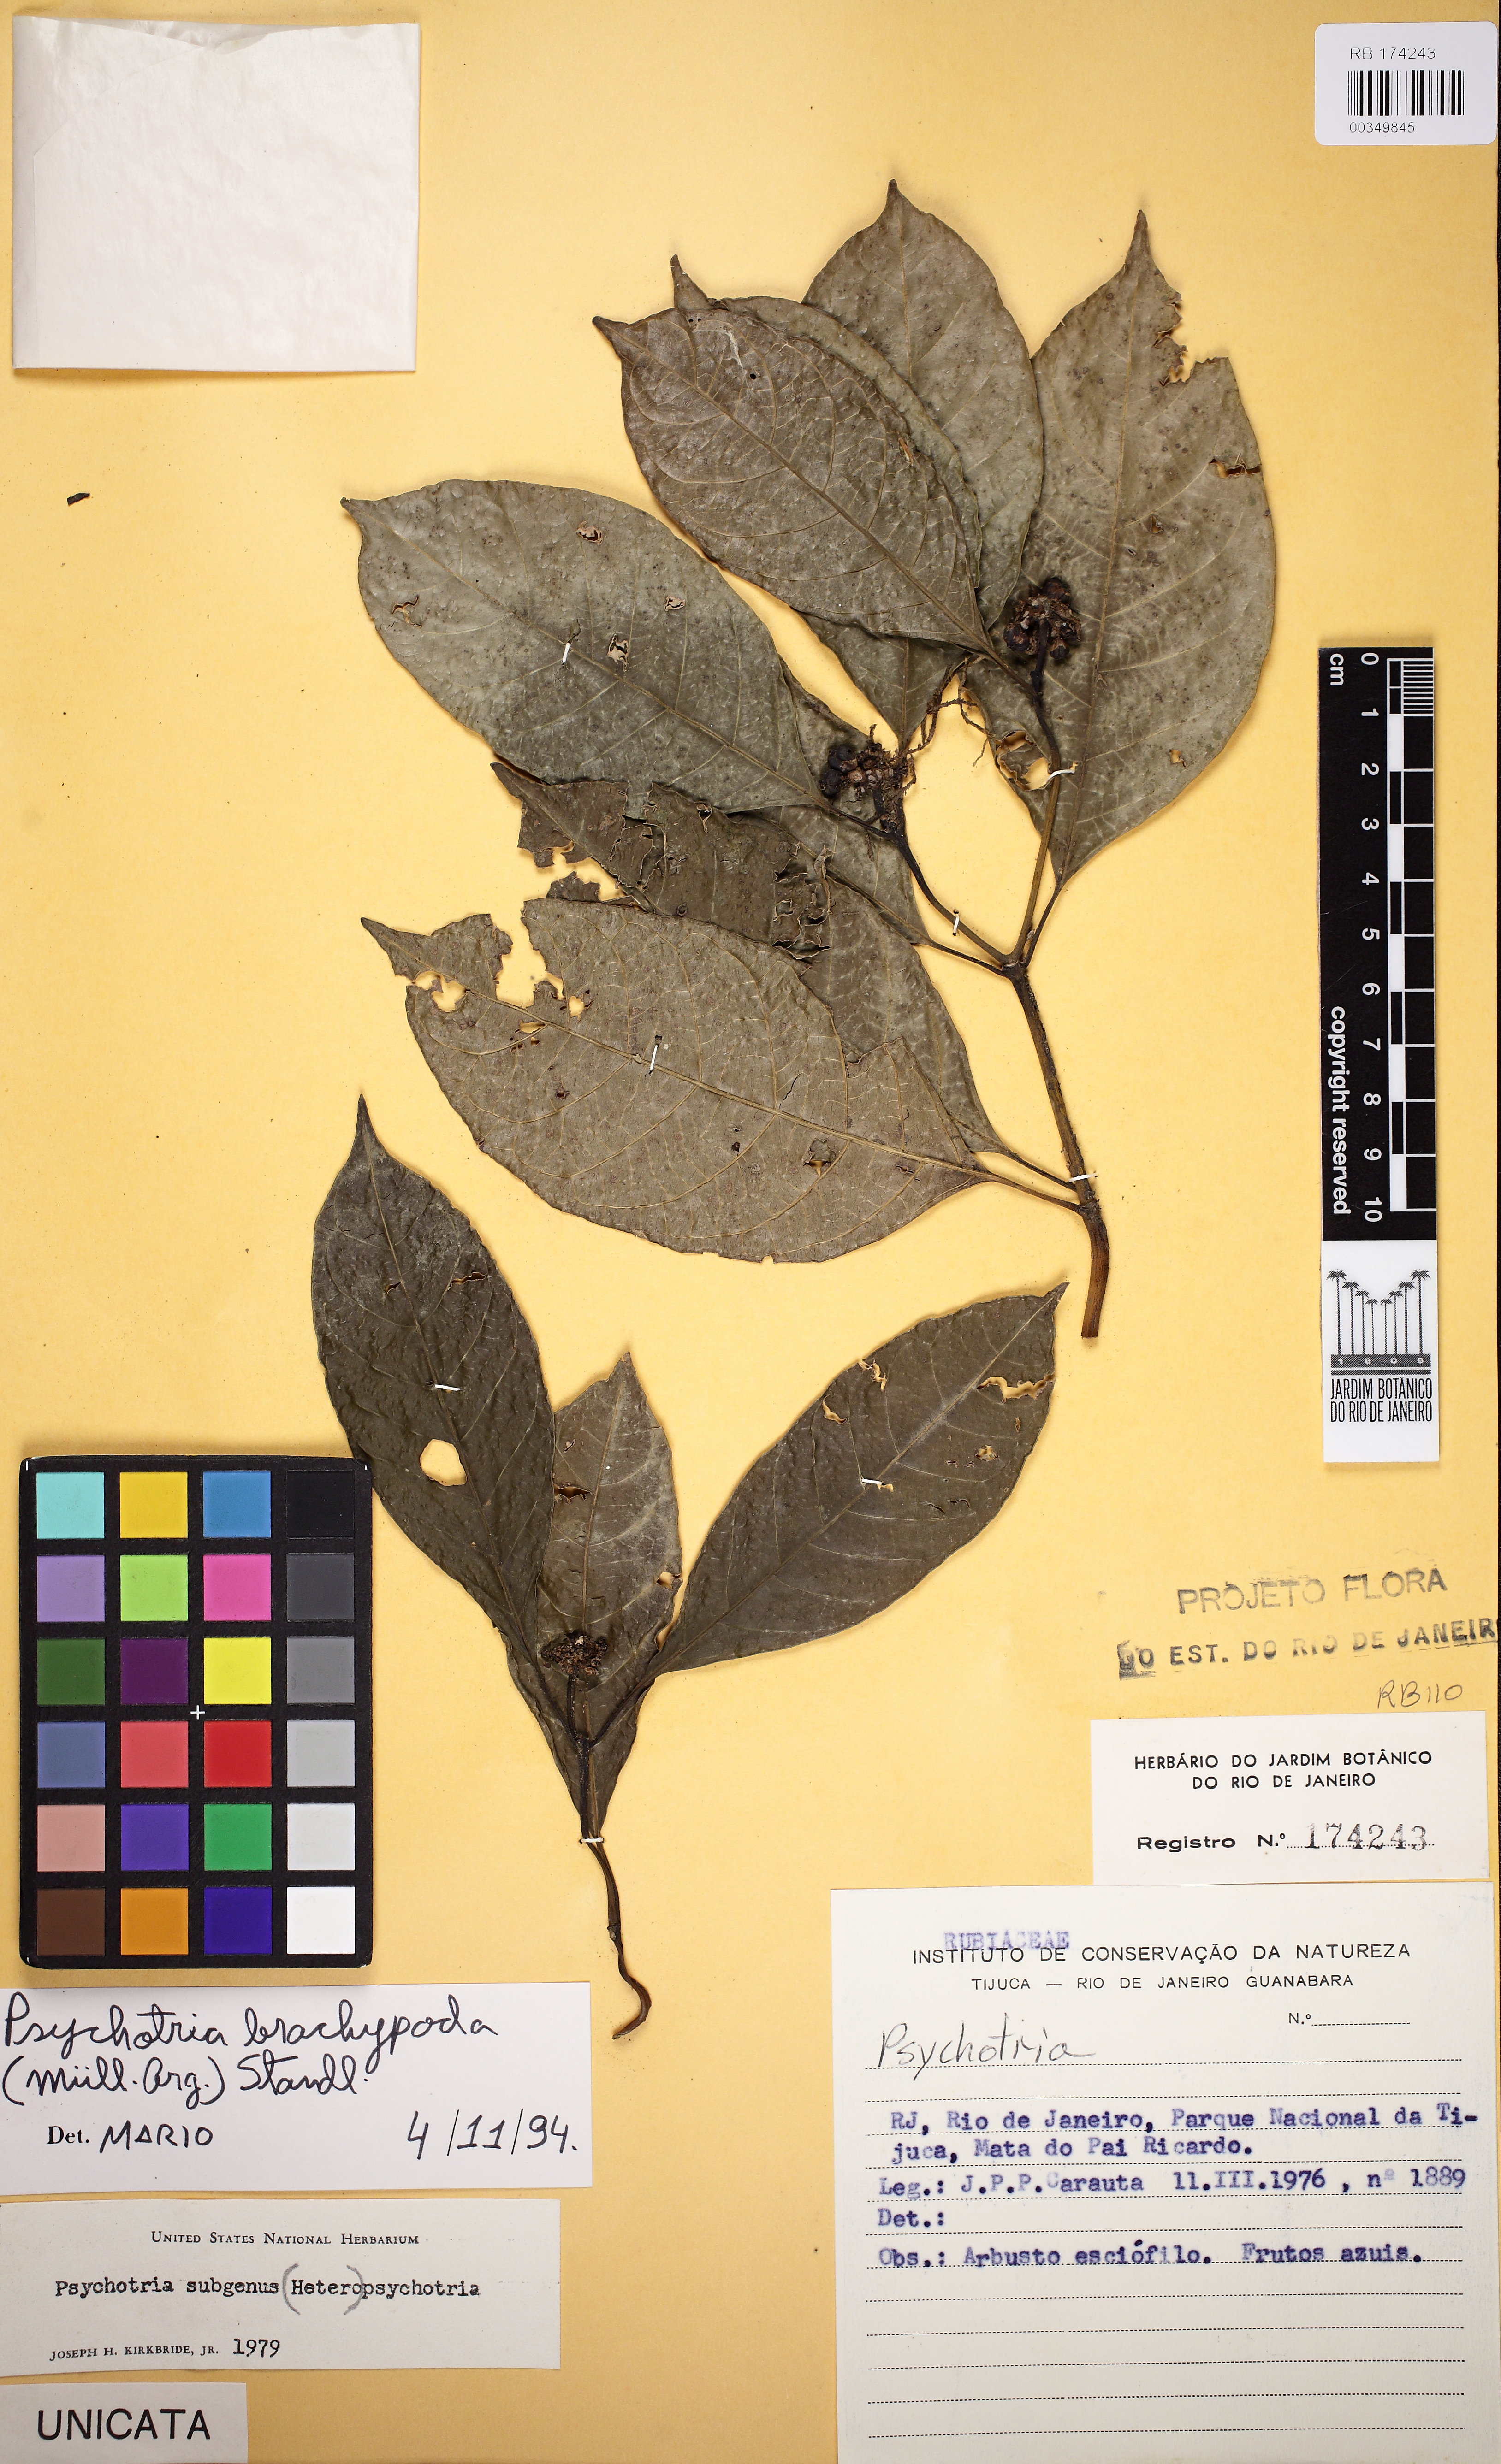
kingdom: Plantae
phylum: Tracheophyta
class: Magnoliopsida
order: Gentianales
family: Rubiaceae
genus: Psychotria
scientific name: Psychotria brachypoda
